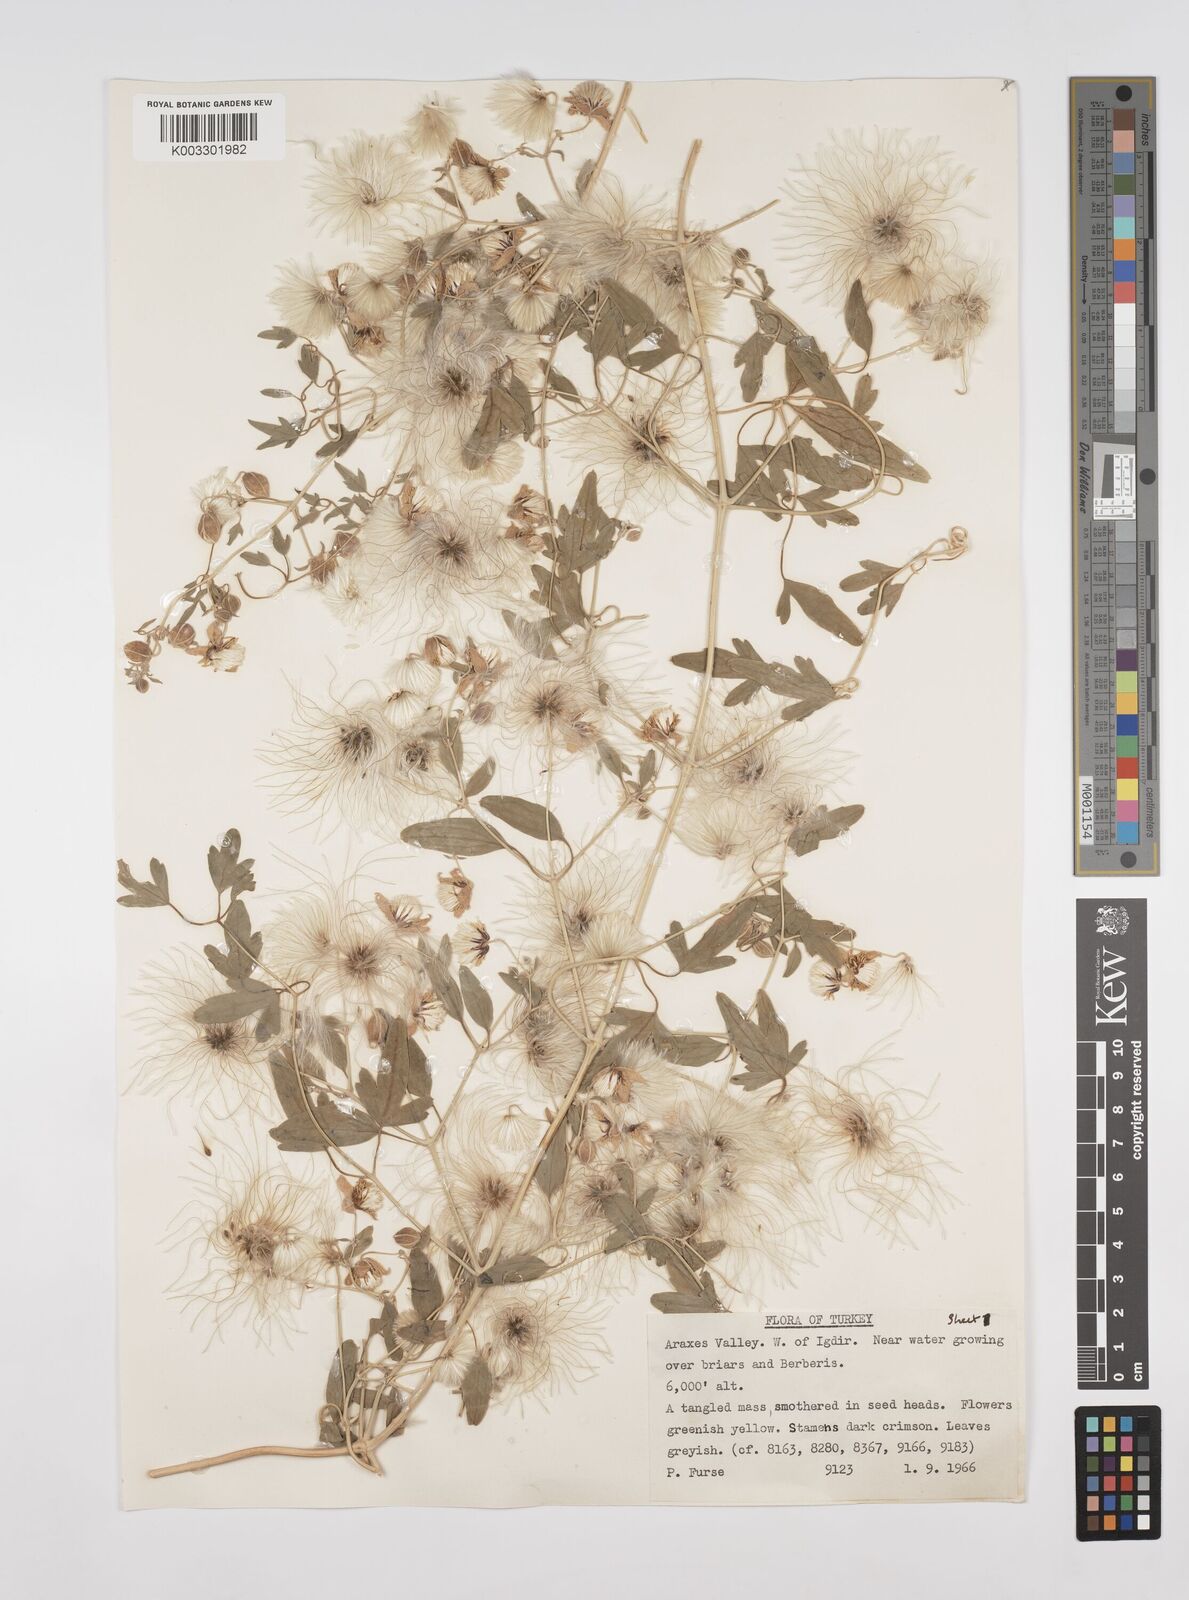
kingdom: Plantae
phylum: Tracheophyta
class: Magnoliopsida
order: Ranunculales
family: Ranunculaceae
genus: Clematis
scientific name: Clematis orientalis
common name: Oriental virgin's-bower
